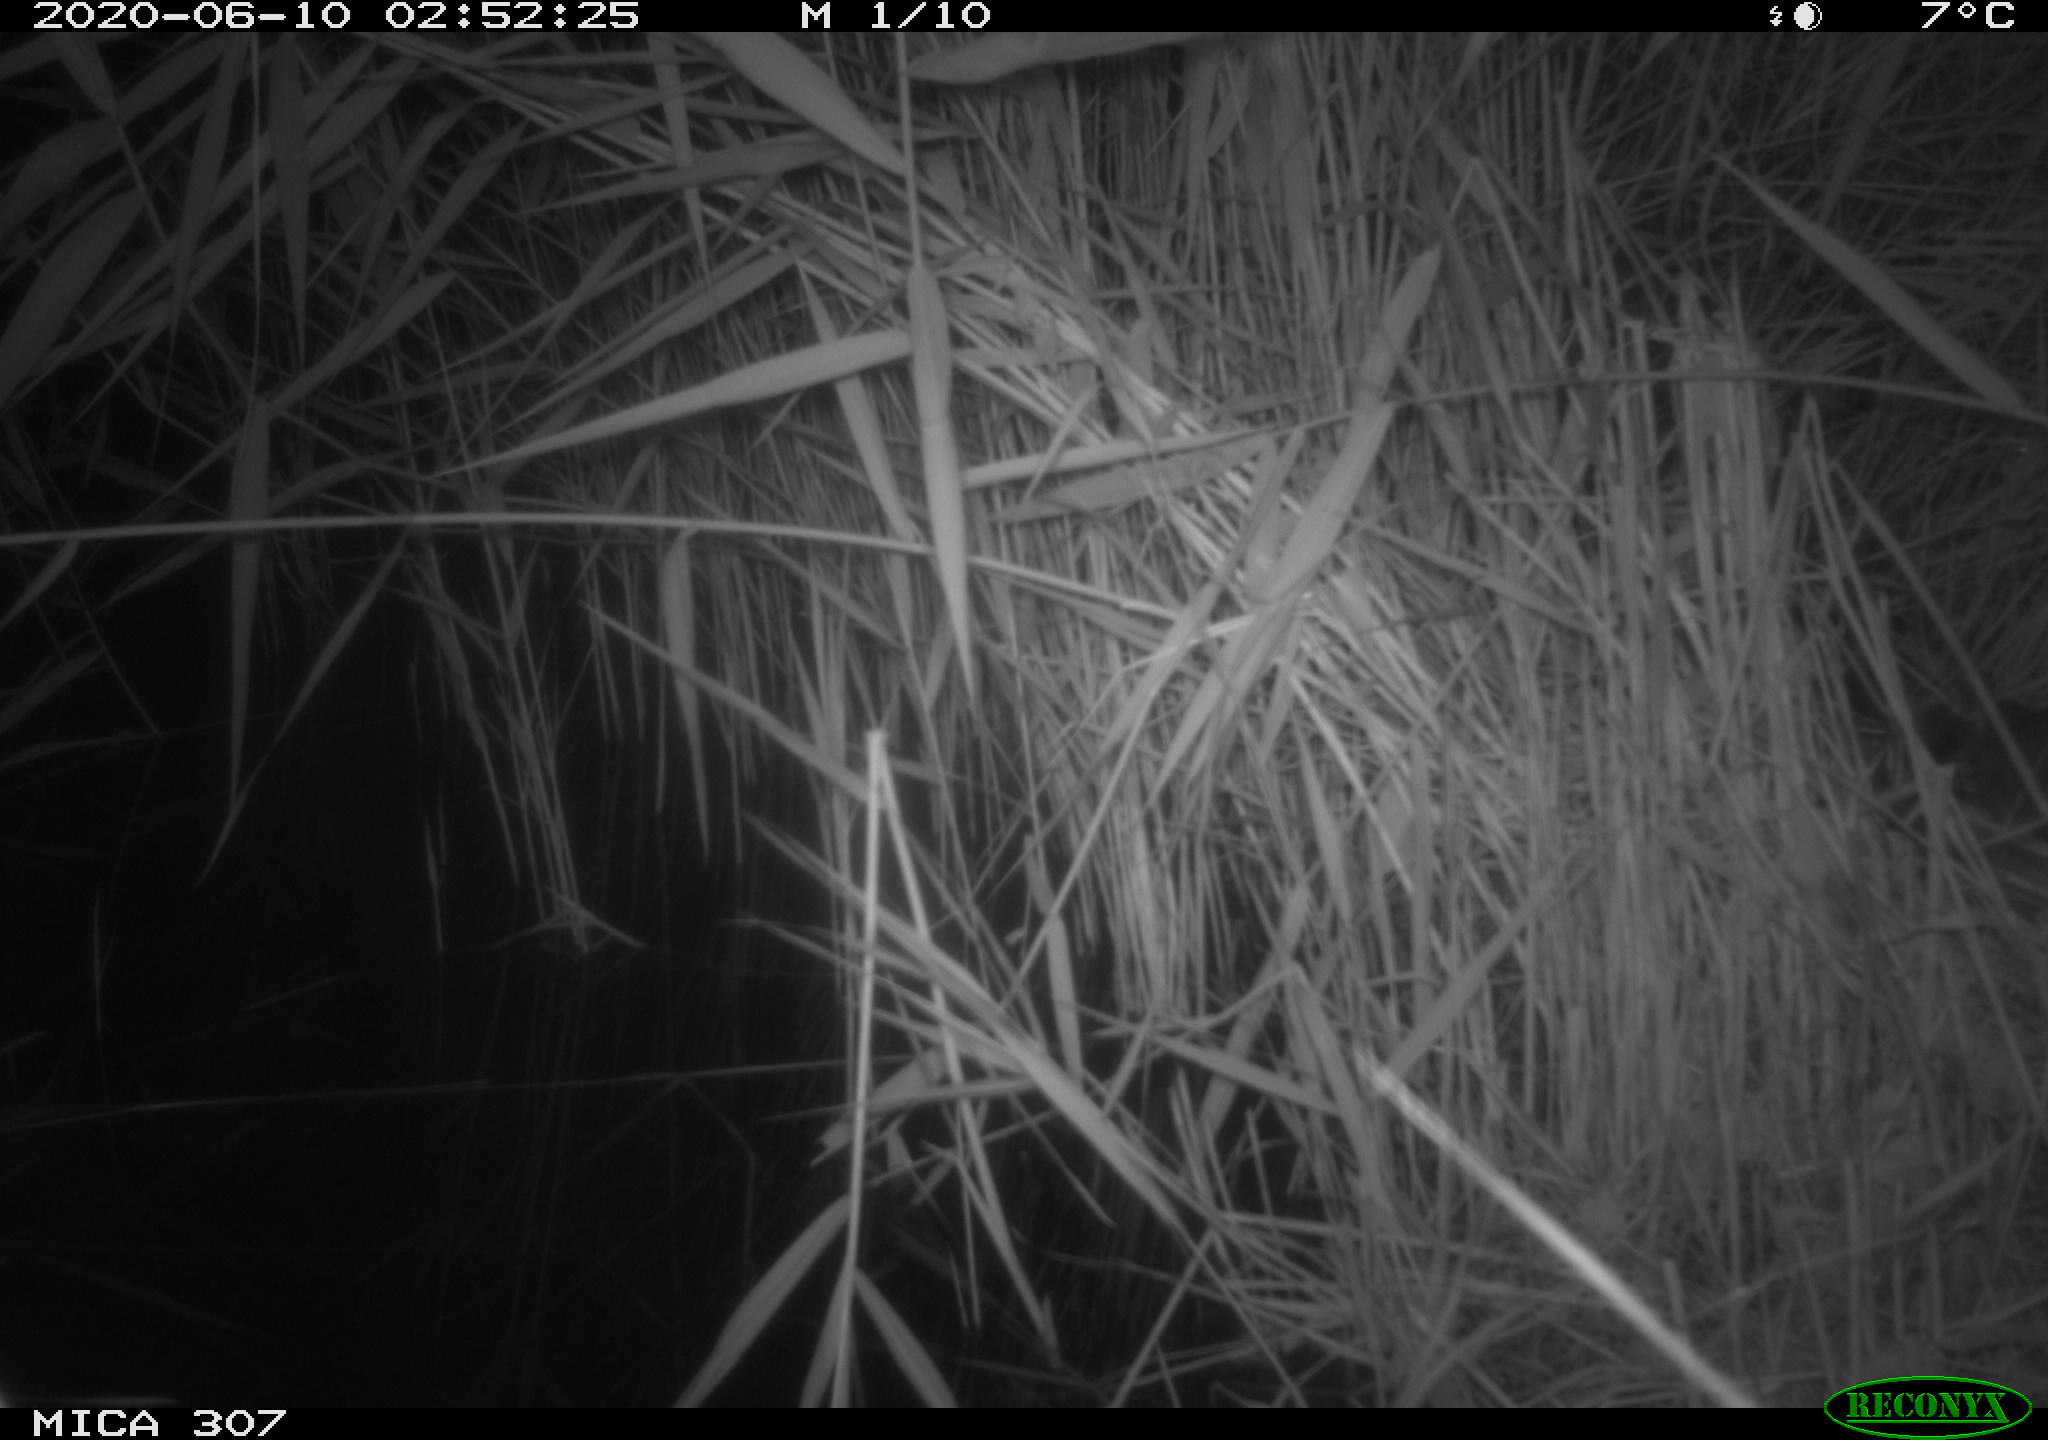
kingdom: Animalia
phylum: Chordata
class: Mammalia
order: Rodentia
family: Muridae
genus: Rattus
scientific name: Rattus norvegicus
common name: Brown rat
